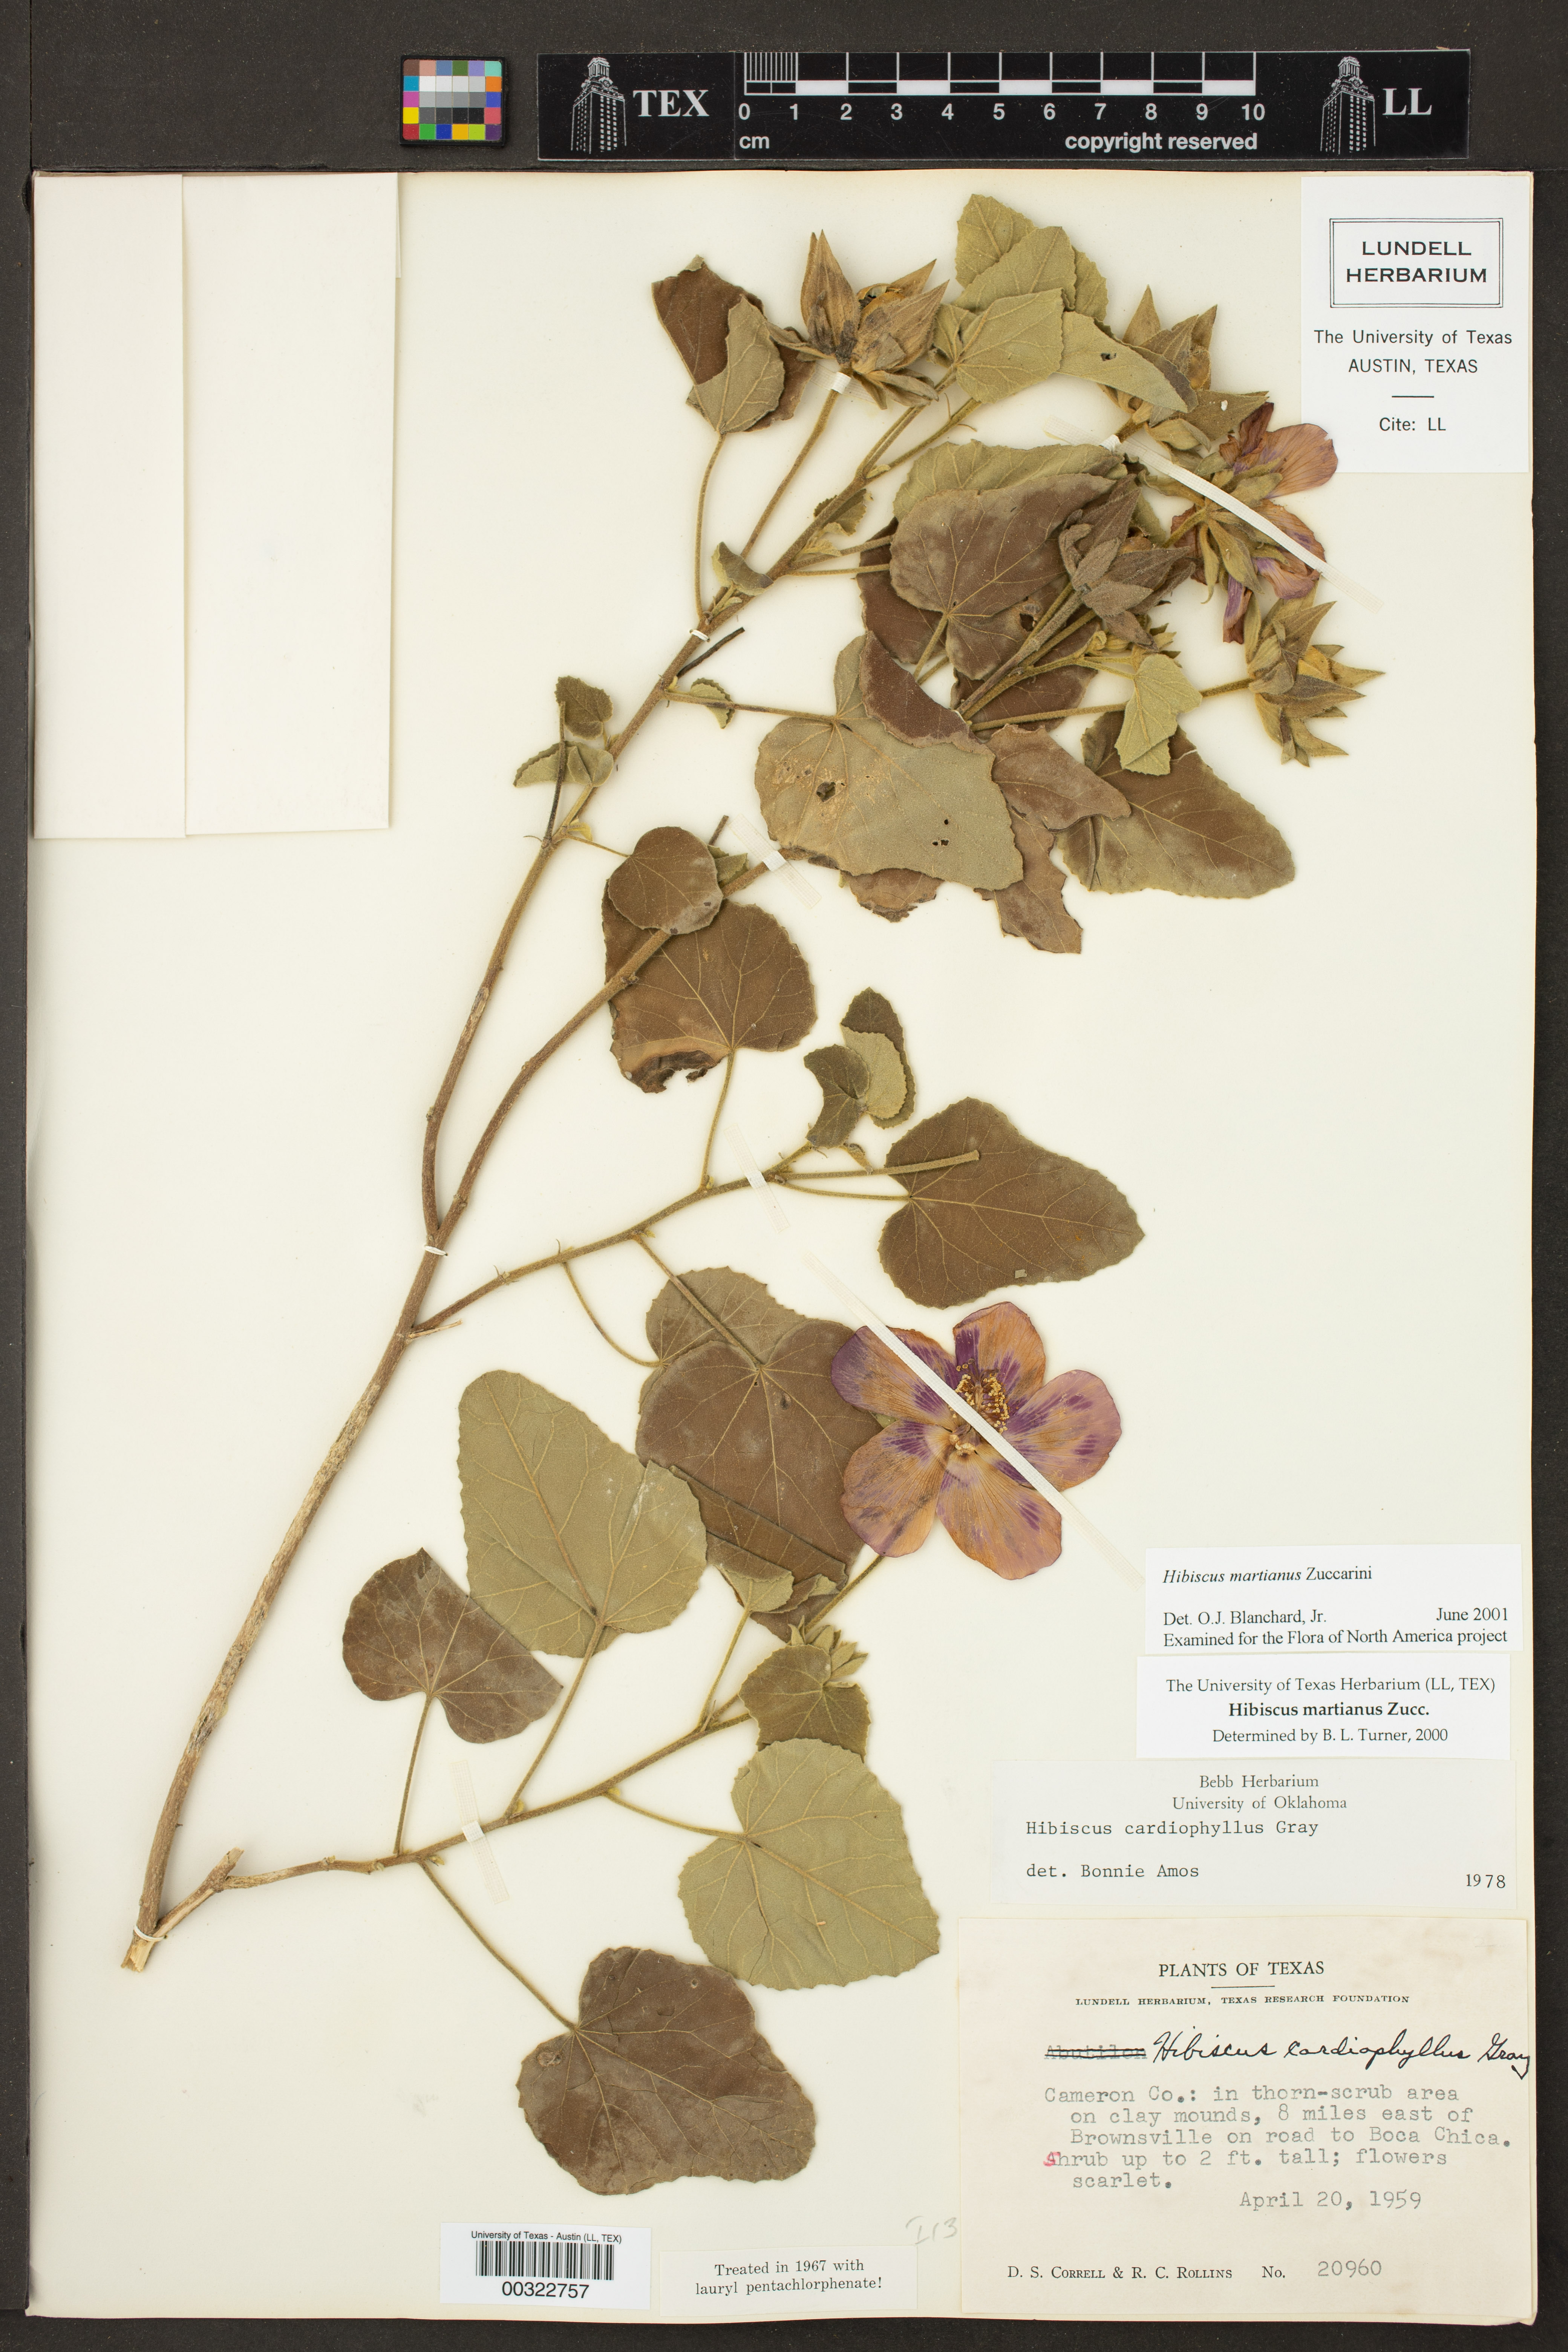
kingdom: Plantae
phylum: Tracheophyta
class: Magnoliopsida
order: Malvales
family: Malvaceae
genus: Hibiscus
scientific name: Hibiscus martianus
